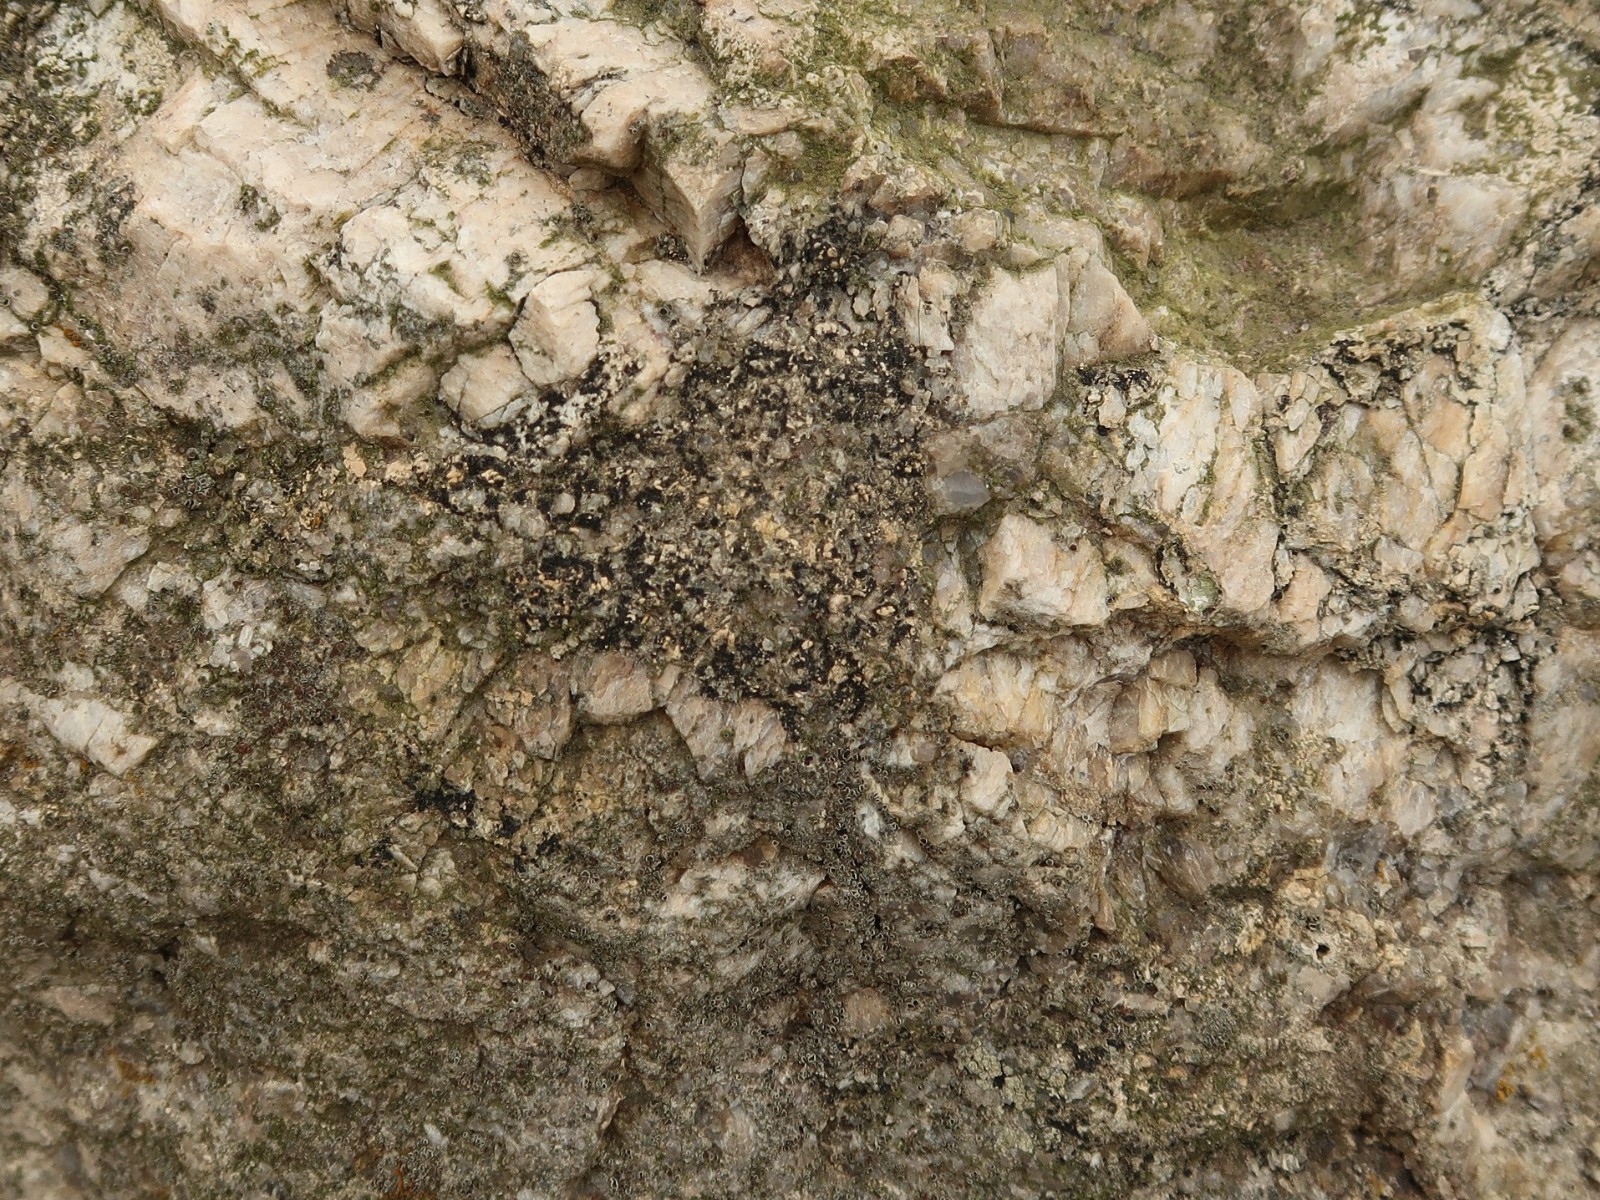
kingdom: Fungi
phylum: Ascomycota
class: Lecanoromycetes
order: Acarosporales
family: Acarosporaceae
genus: Acarospora
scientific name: Acarospora privigna
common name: sort foldekantlav
